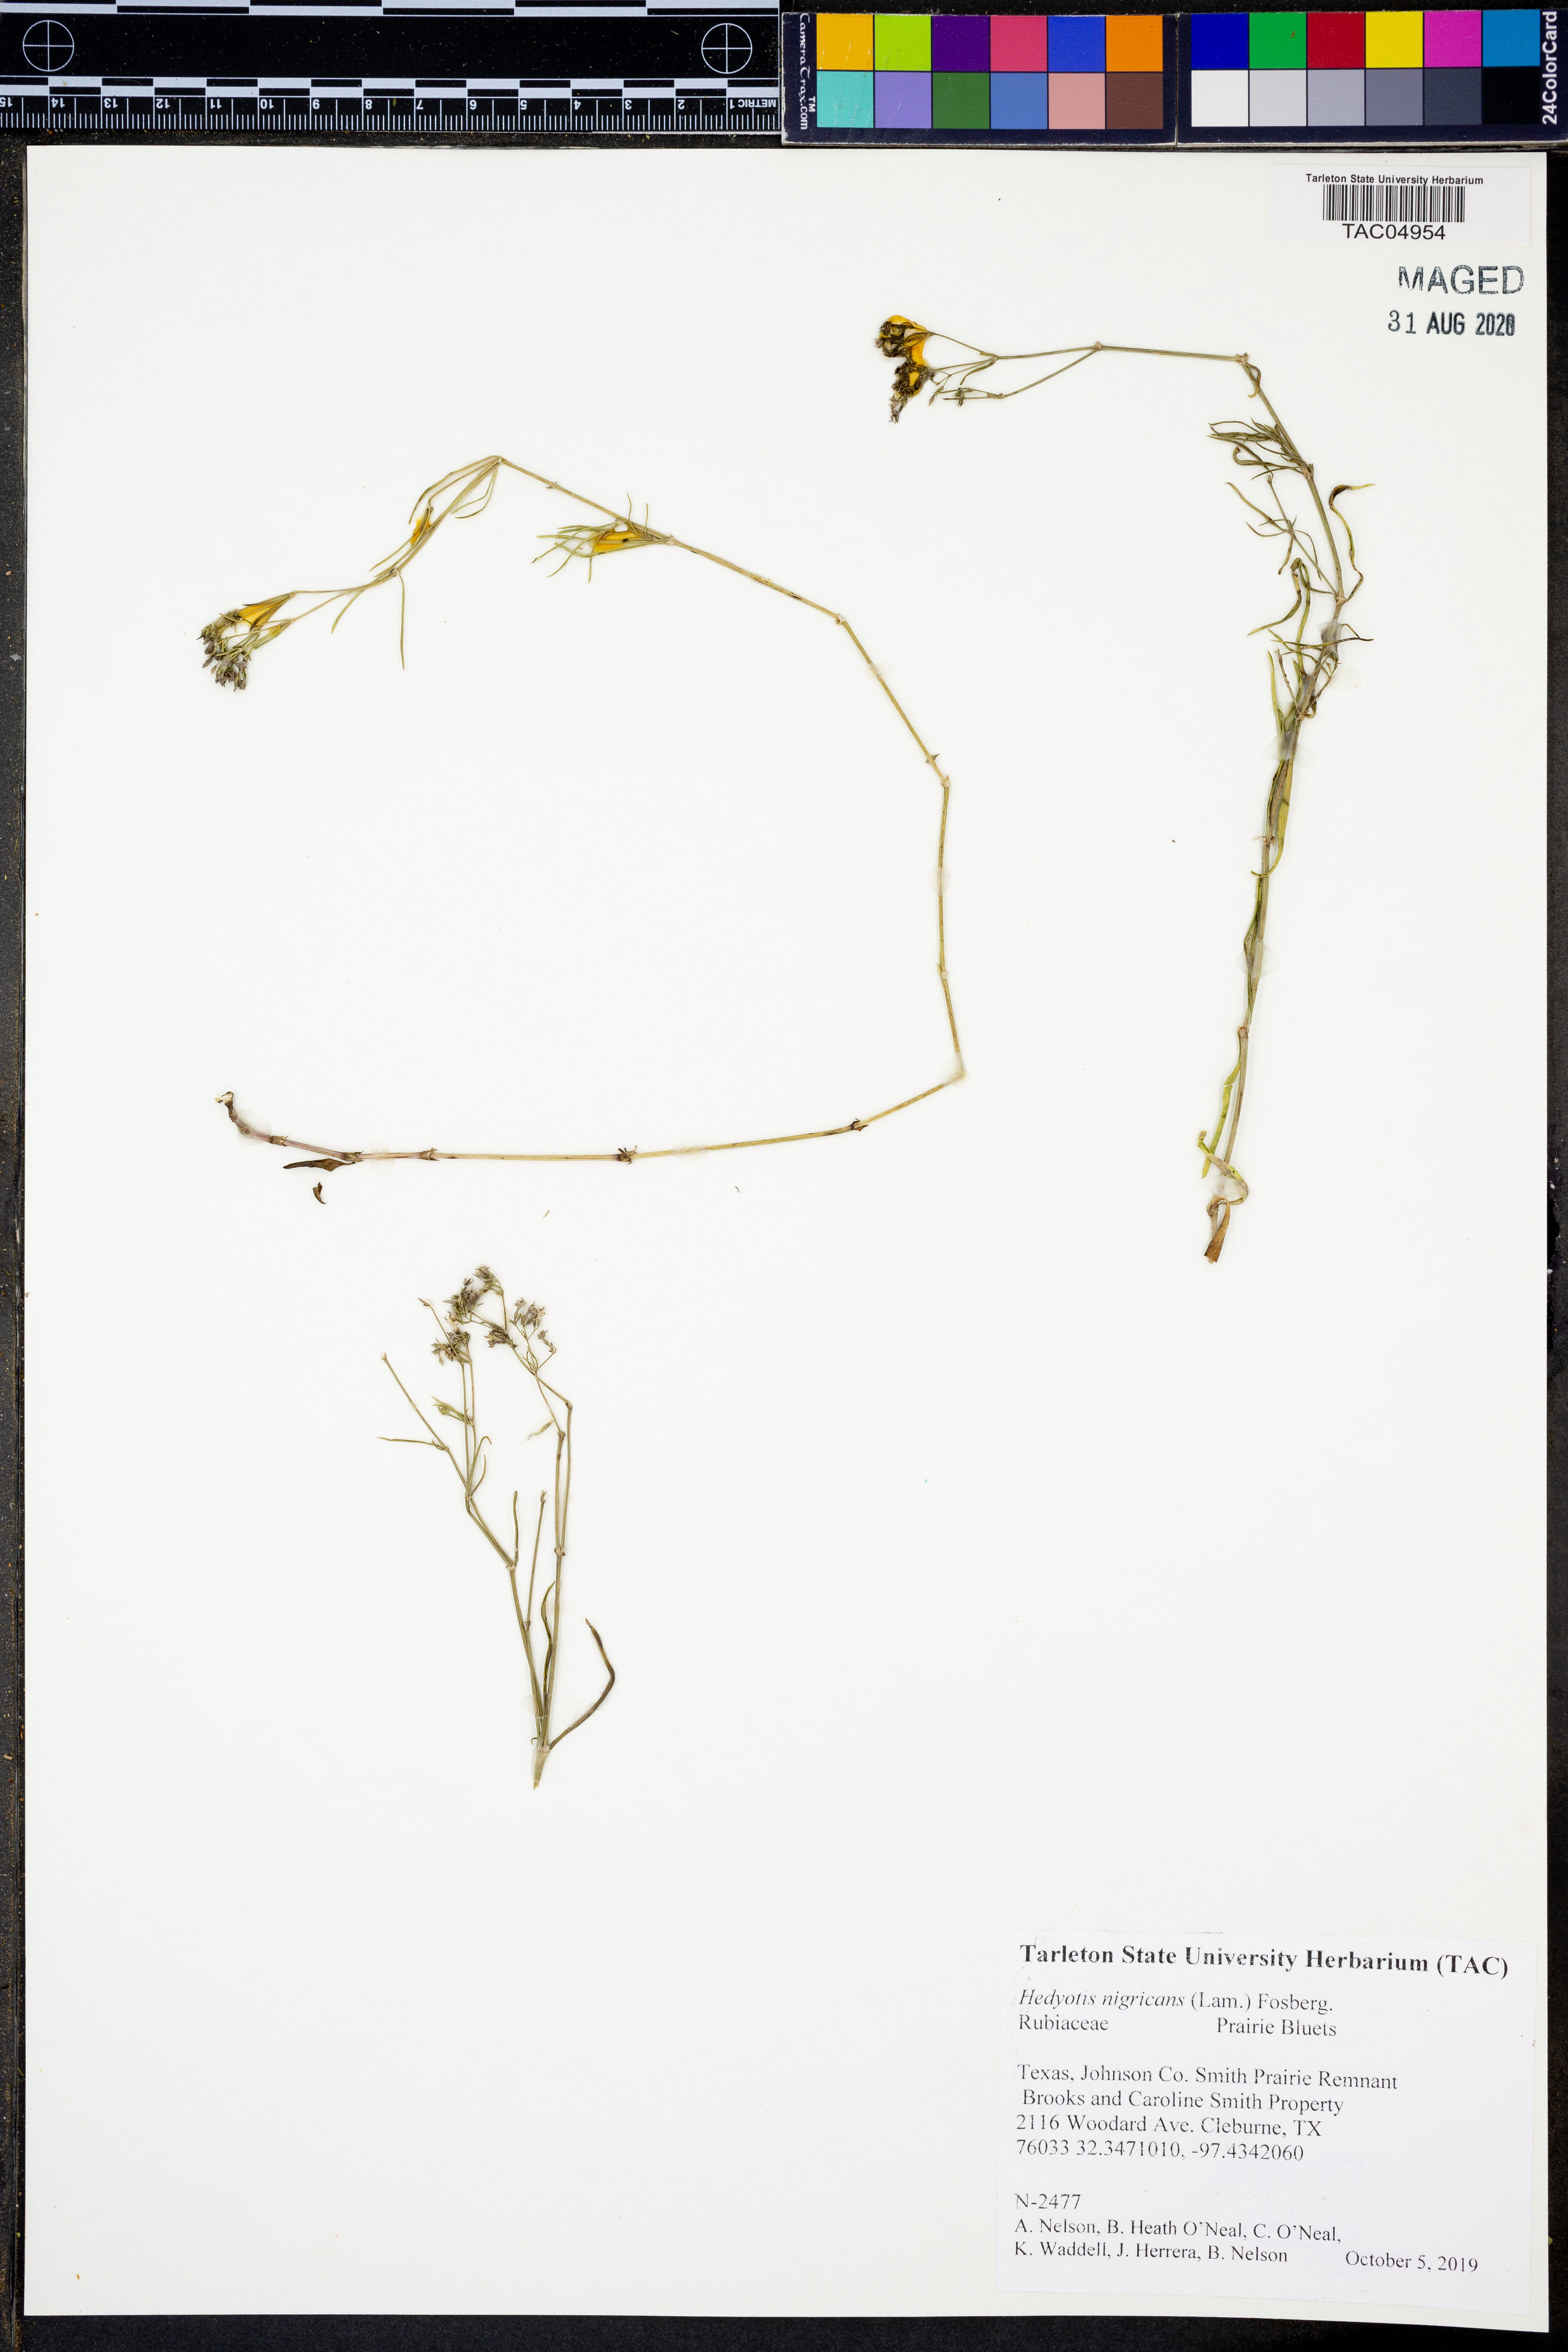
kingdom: Plantae
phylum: Tracheophyta
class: Magnoliopsida
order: Gentianales
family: Rubiaceae
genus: Stenaria
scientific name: Stenaria nigricans
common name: Diamondflowers
